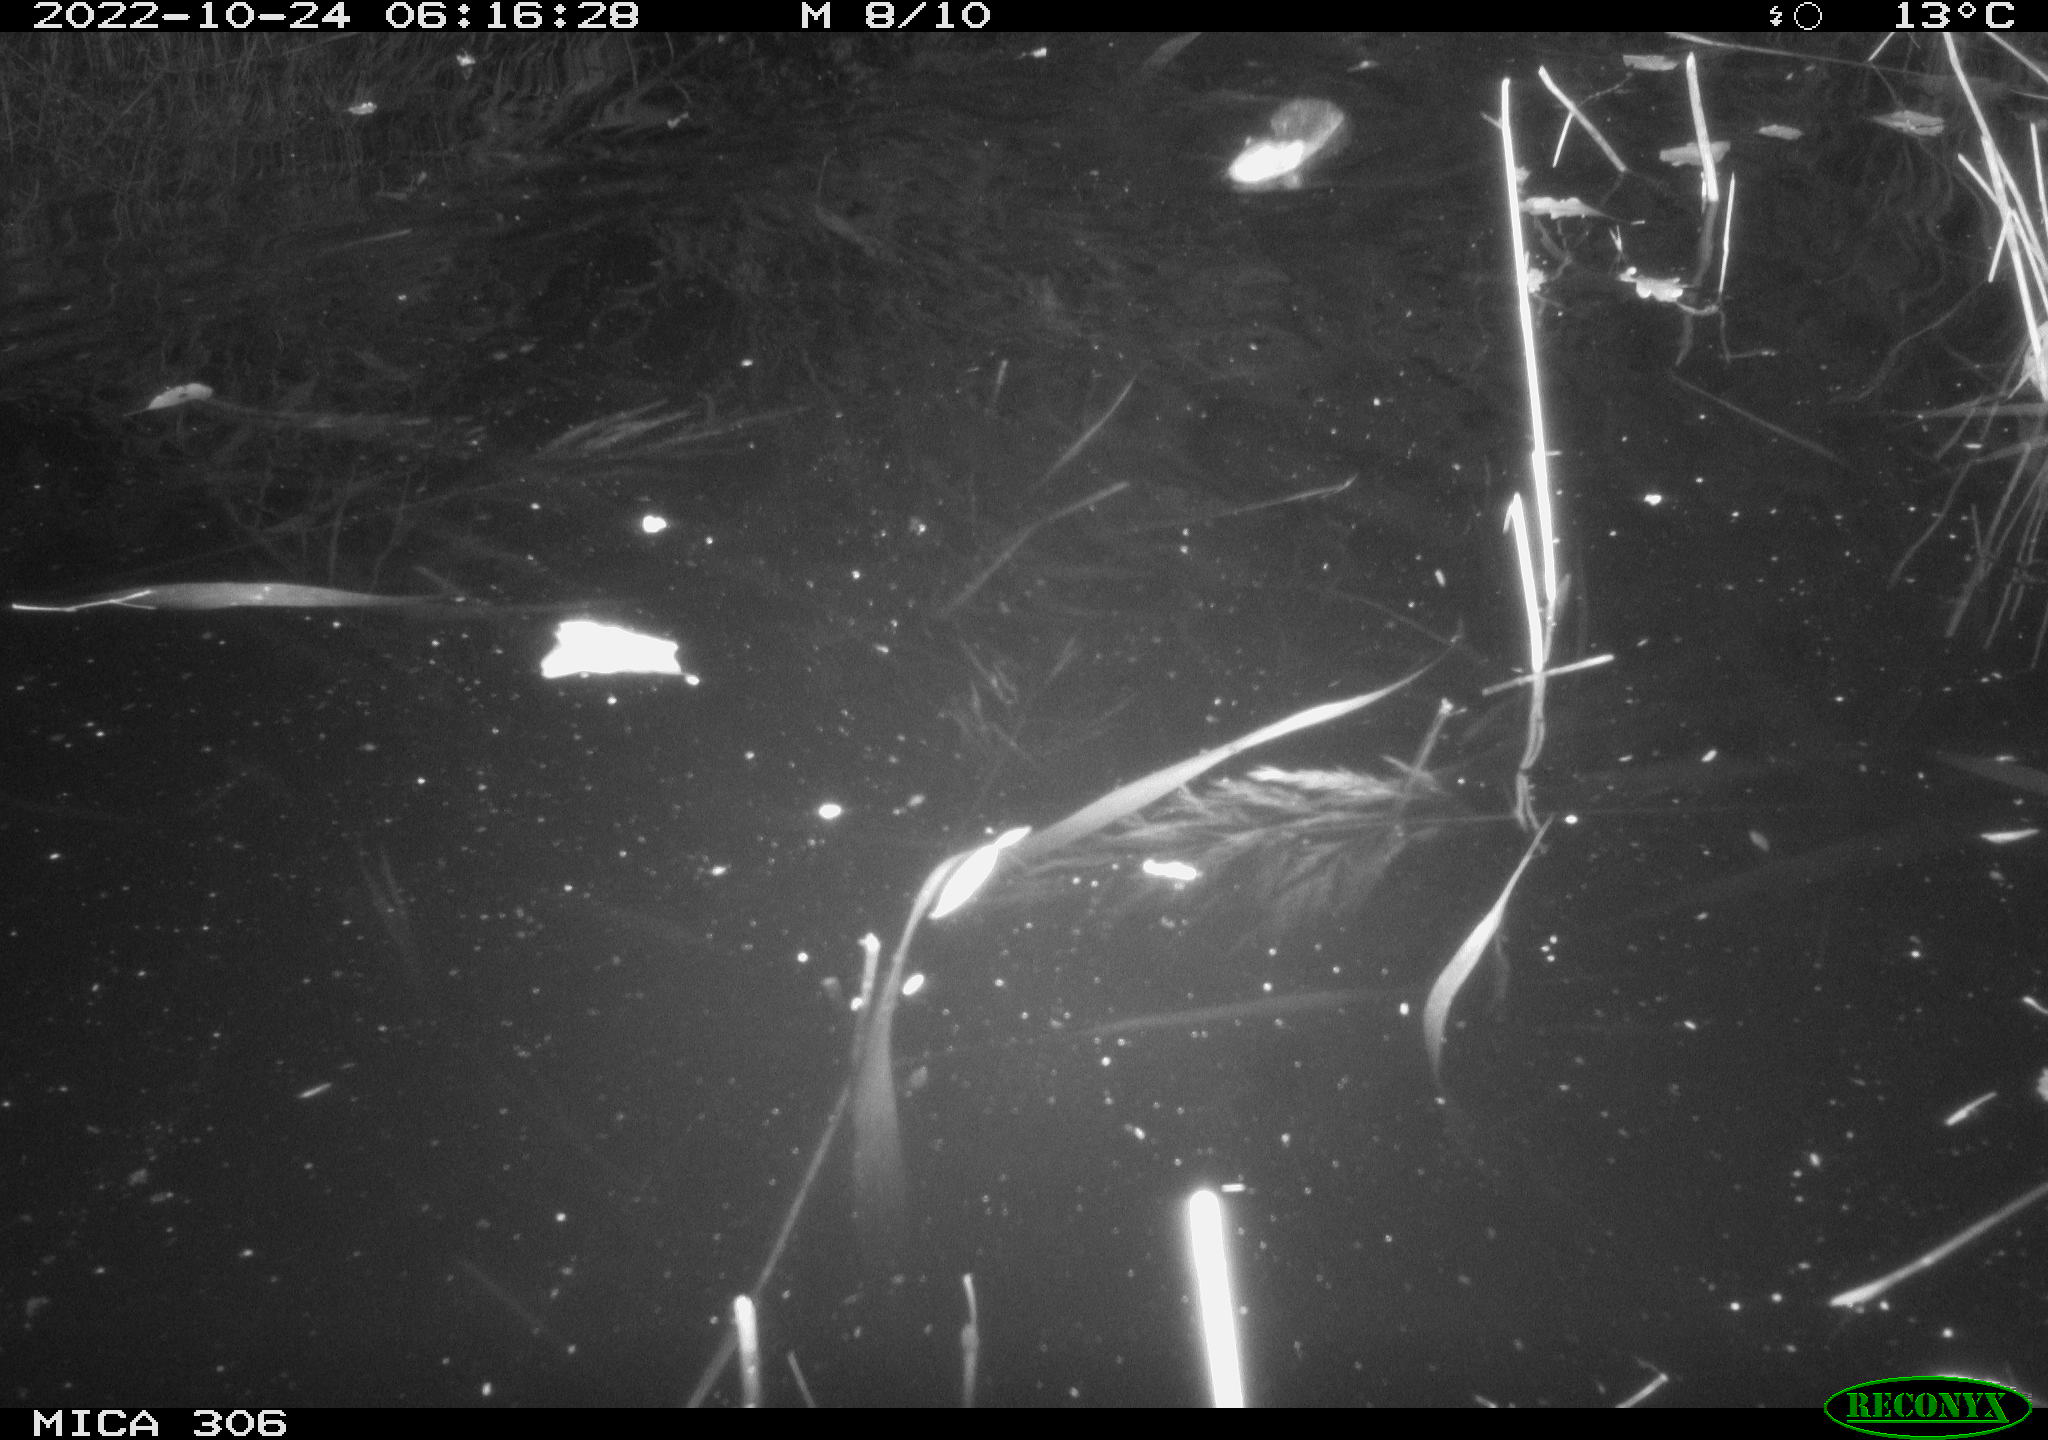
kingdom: Animalia
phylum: Chordata
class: Mammalia
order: Rodentia
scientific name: Rodentia
